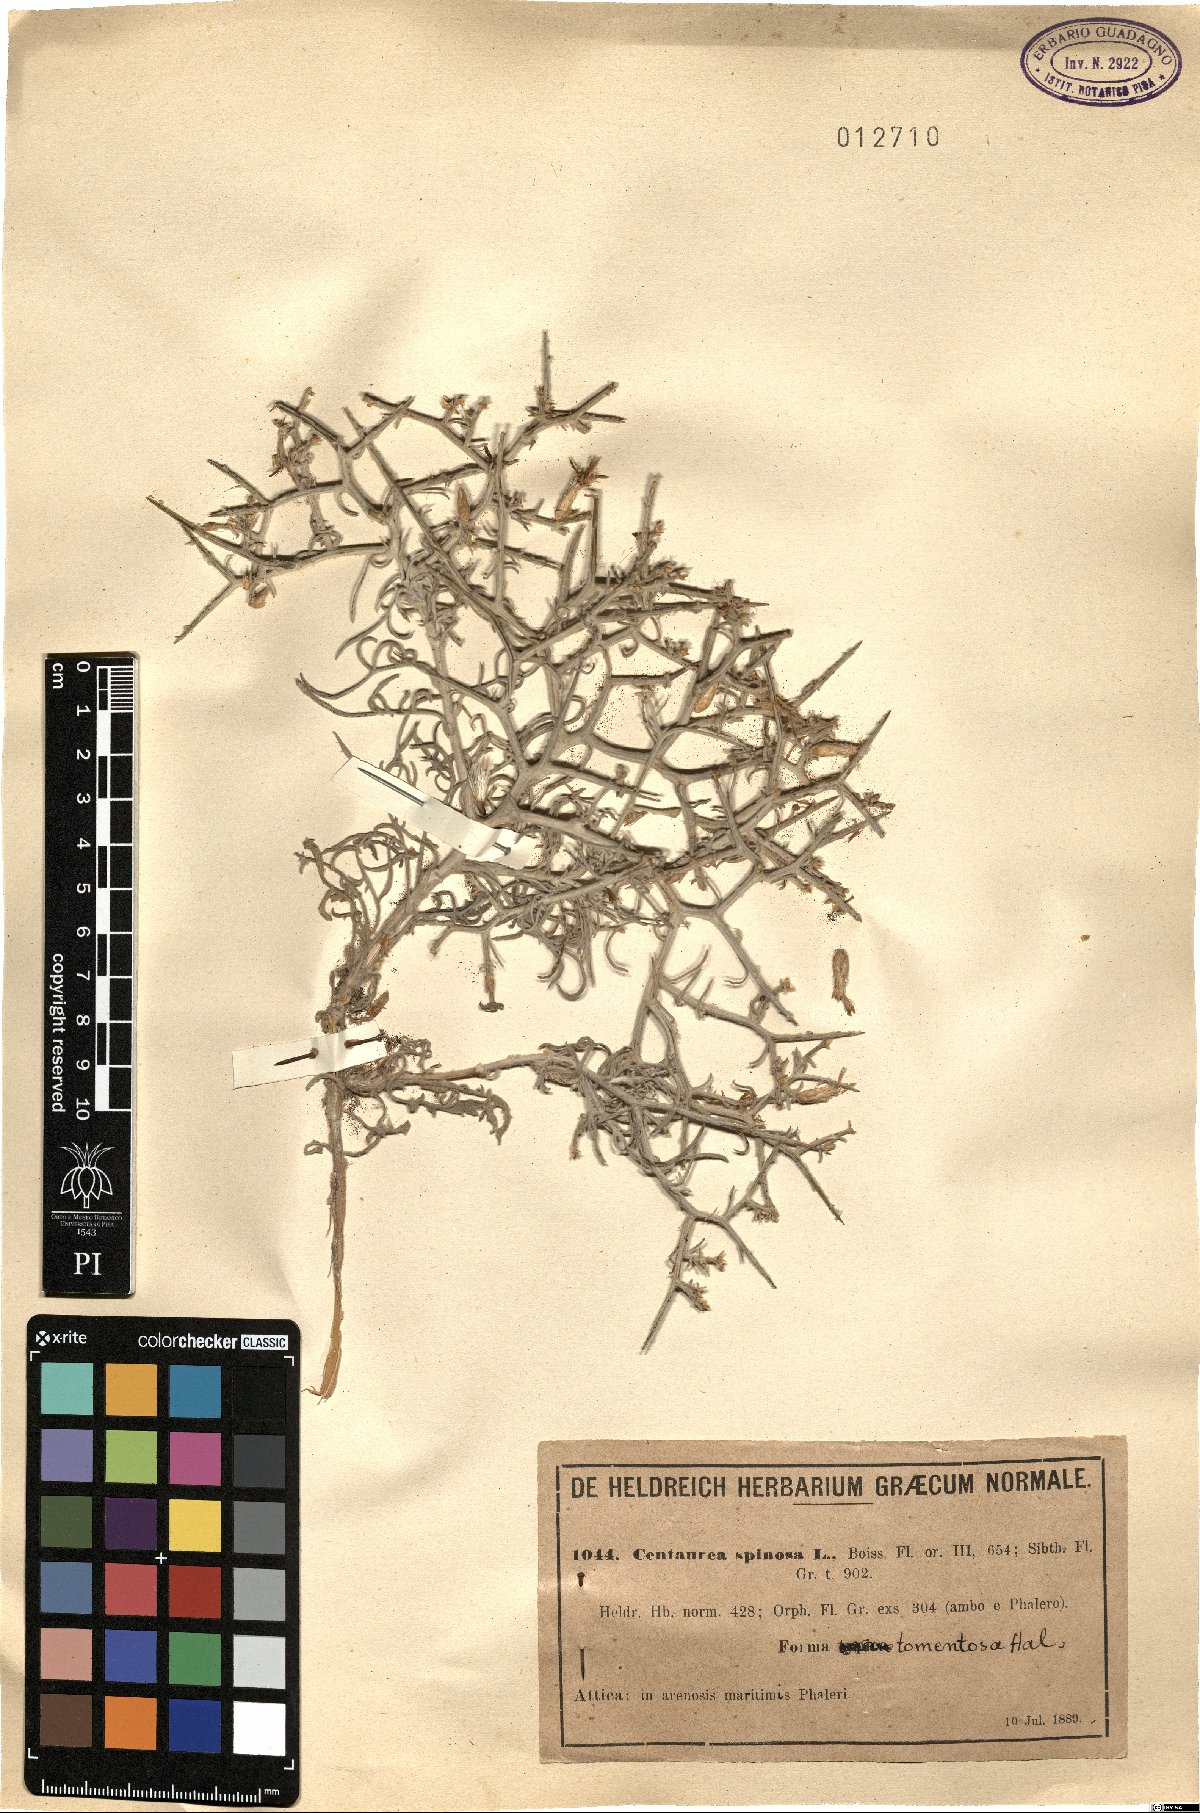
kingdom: Plantae
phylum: Tracheophyta
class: Magnoliopsida
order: Asterales
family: Asteraceae
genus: Centaurea
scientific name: Centaurea spinosa
